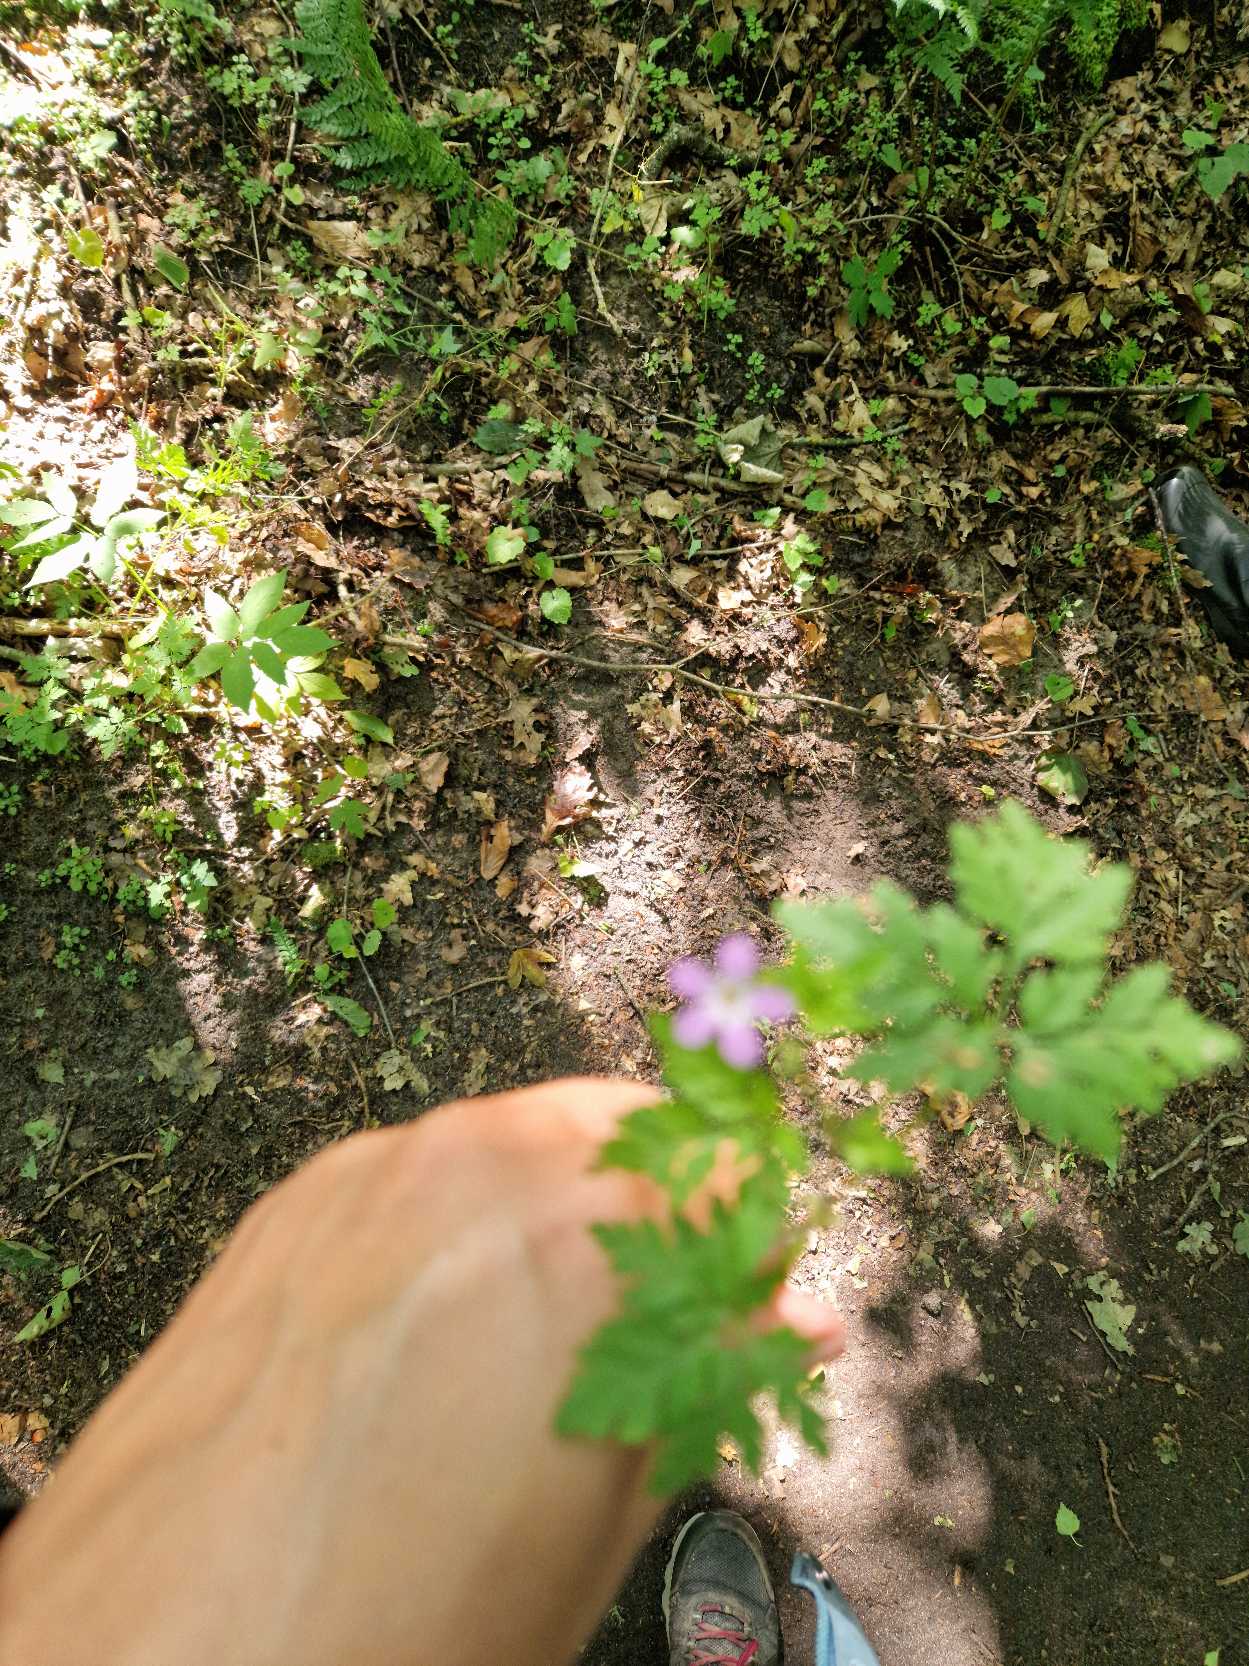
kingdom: Plantae
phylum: Tracheophyta
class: Magnoliopsida
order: Geraniales
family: Geraniaceae
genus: Geranium
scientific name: Geranium robertianum
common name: Stinkende storkenæb
